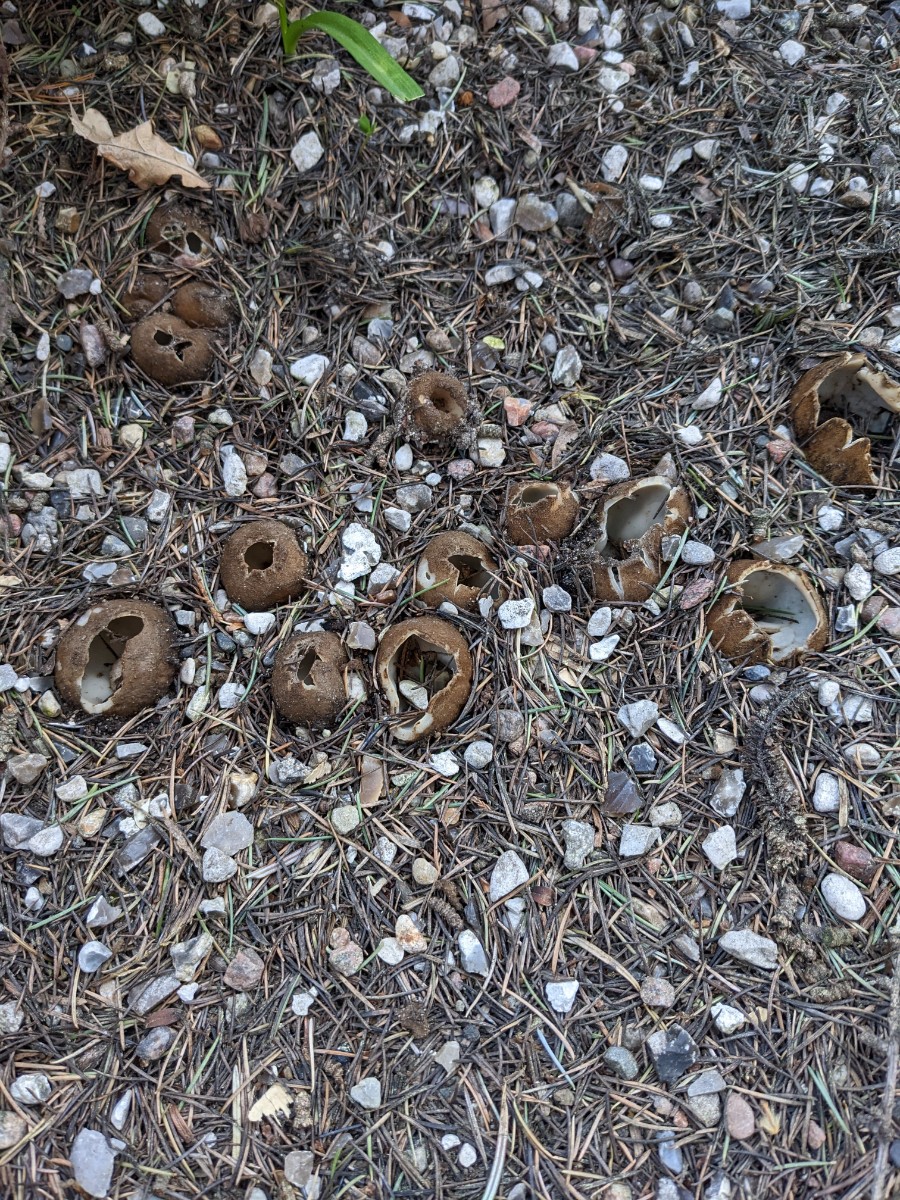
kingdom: Fungi
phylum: Ascomycota
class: Pezizomycetes
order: Pezizales
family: Pyronemataceae
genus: Geopora
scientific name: Geopora sumneriana
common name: vår-jordbæger
